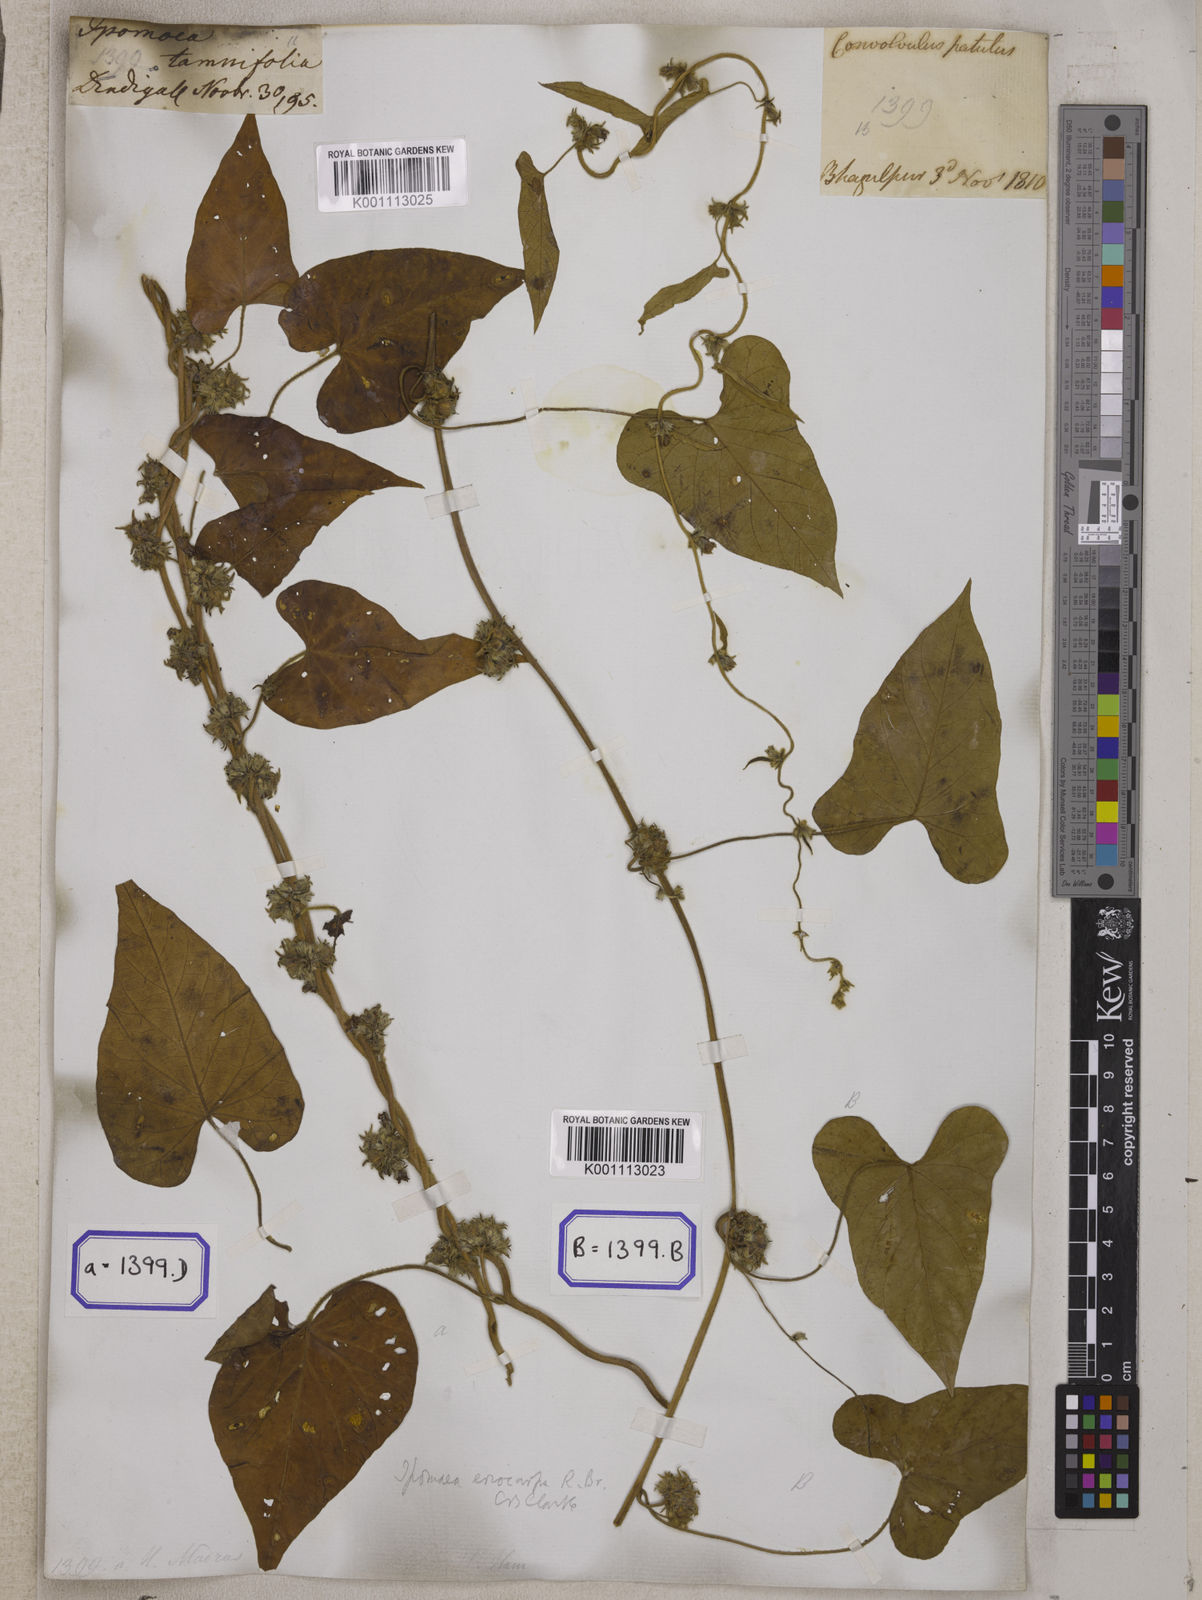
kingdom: Plantae
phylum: Tracheophyta
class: Magnoliopsida
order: Solanales
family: Convolvulaceae
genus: Convolvulus
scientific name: Convolvulus
